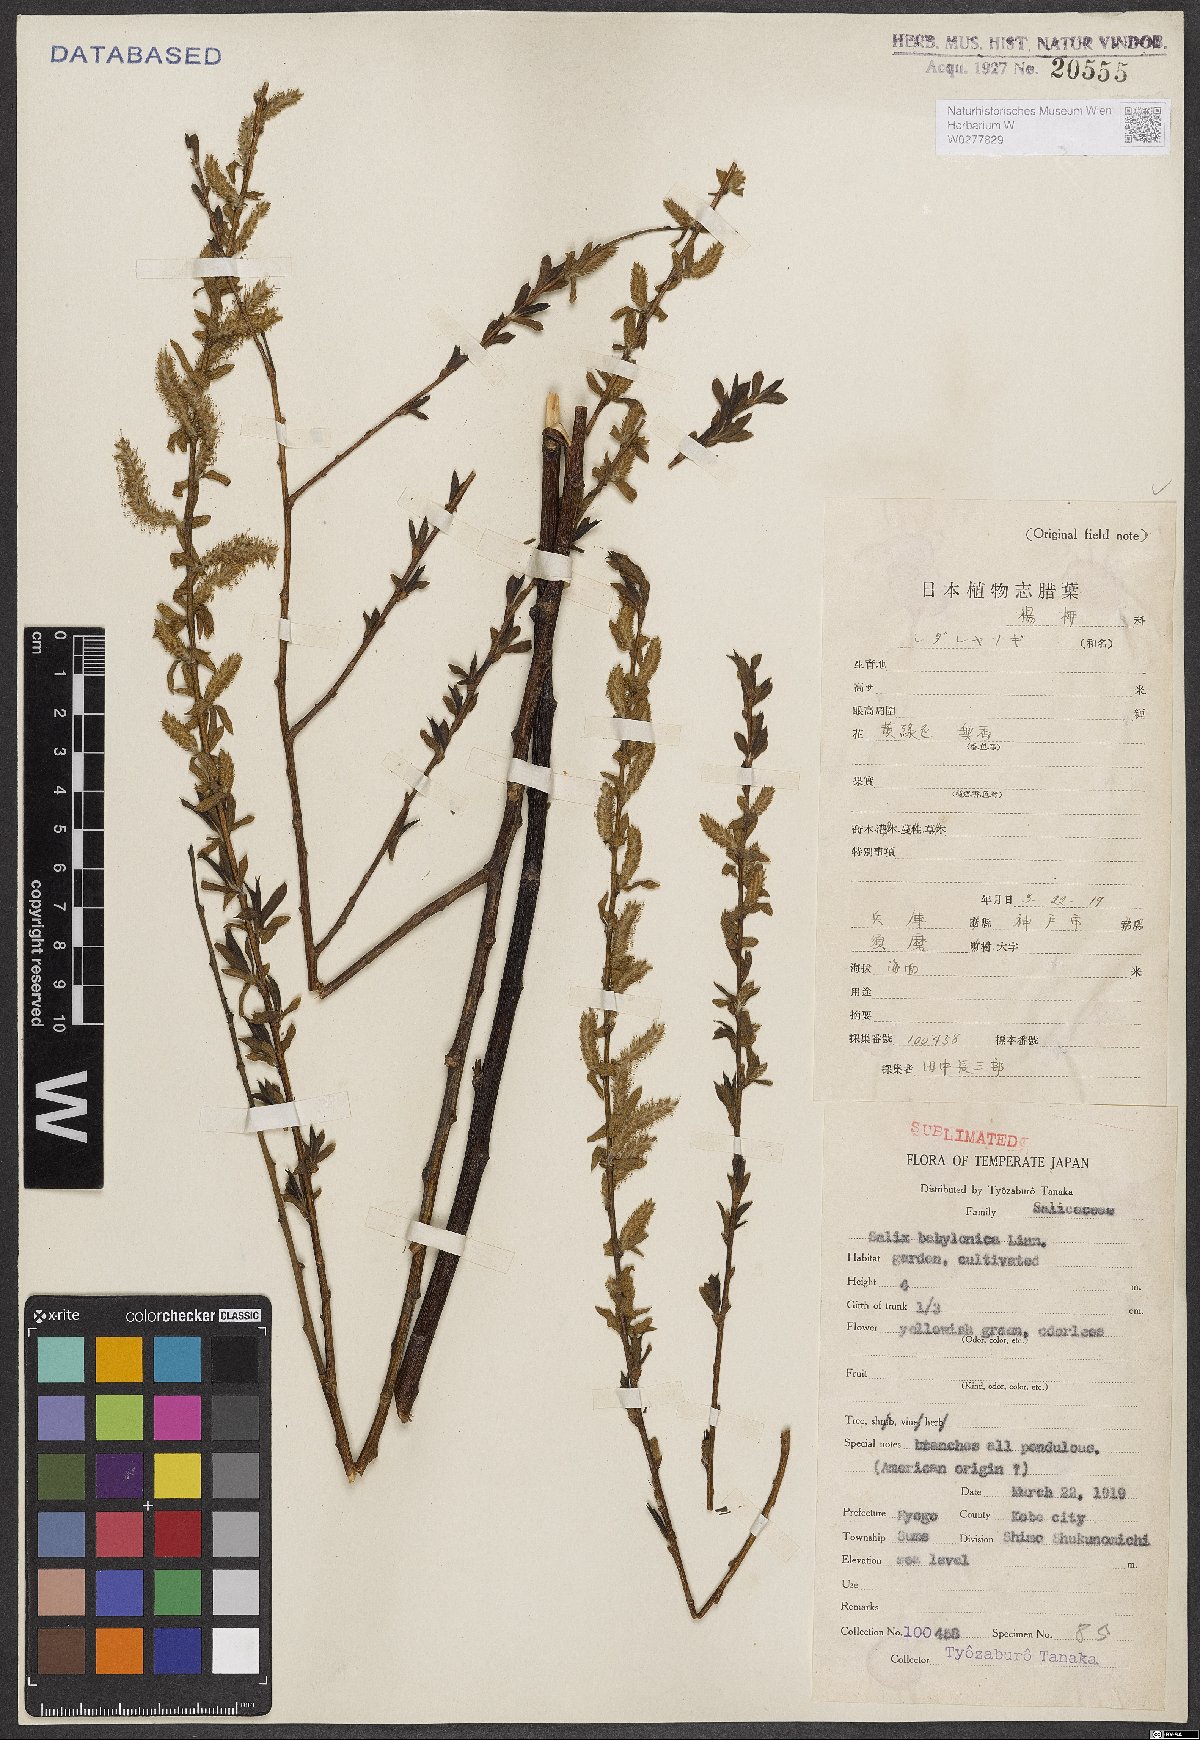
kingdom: Plantae
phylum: Tracheophyta
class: Magnoliopsida
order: Malpighiales
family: Salicaceae
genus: Salix
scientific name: Salix babylonica
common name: Weeping willow
